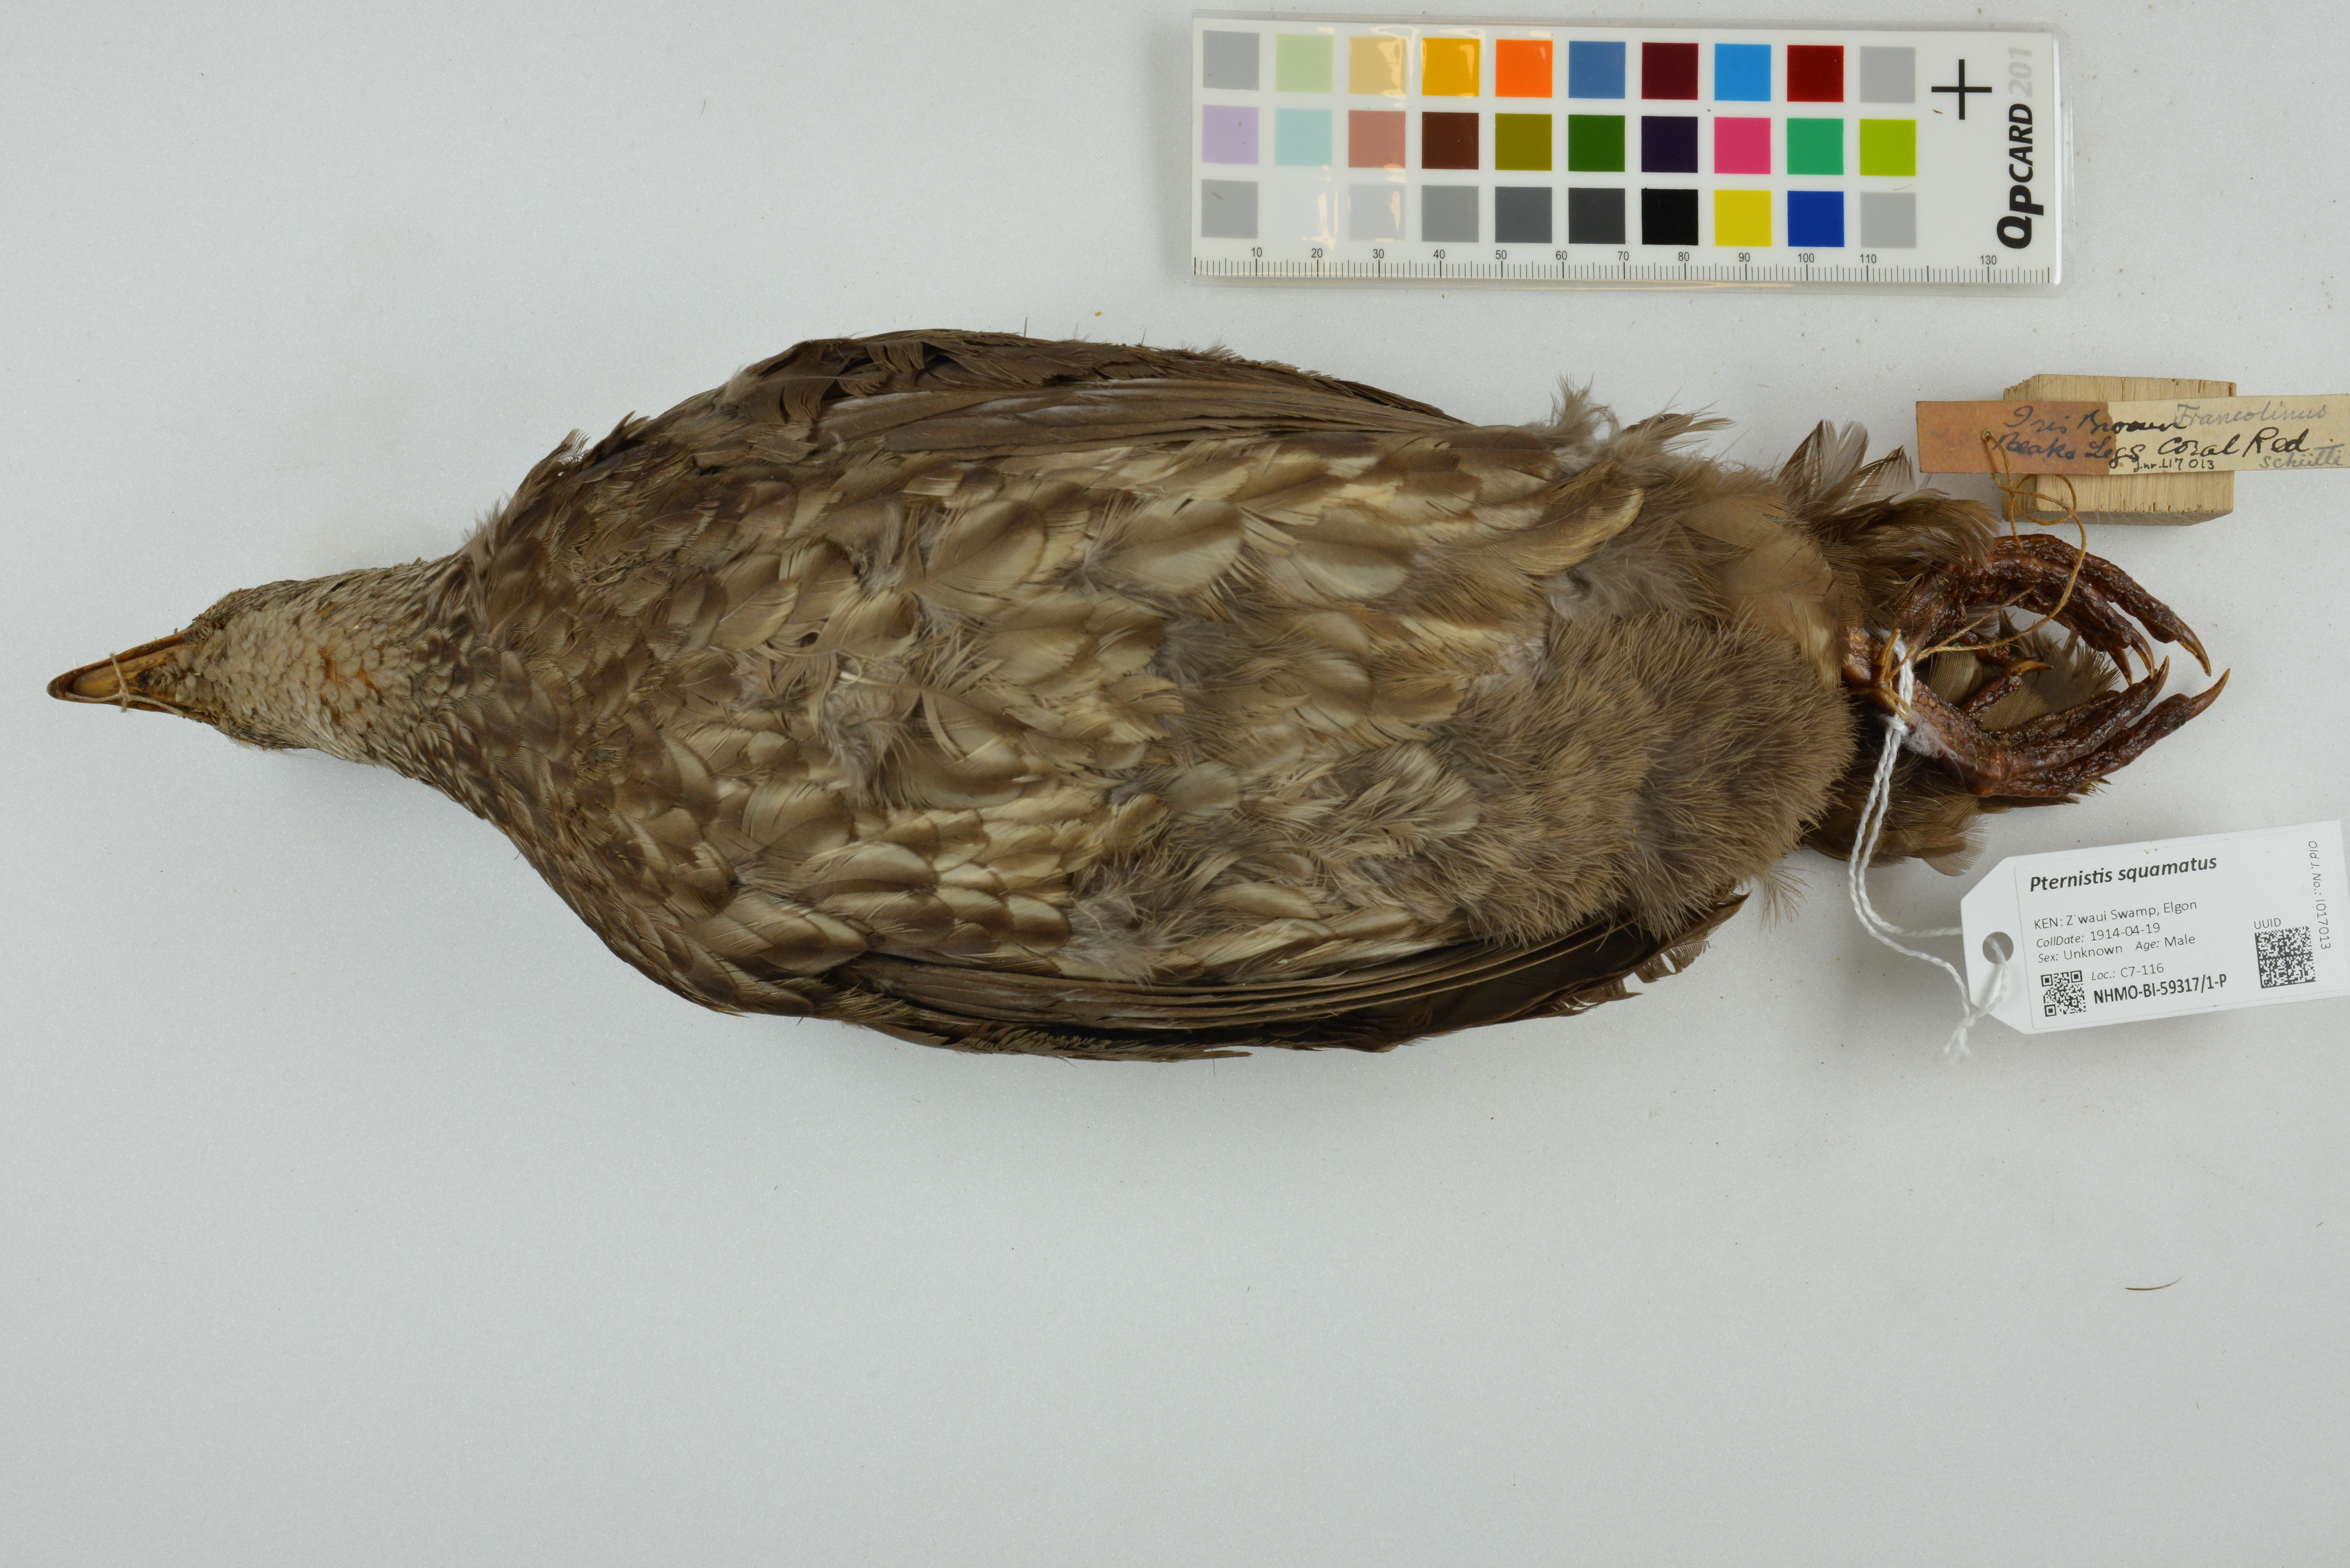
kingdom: Animalia
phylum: Chordata
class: Aves
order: Galliformes
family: Phasianidae
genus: Pternistis
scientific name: Pternistis squamatus
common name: Scaly francolin
